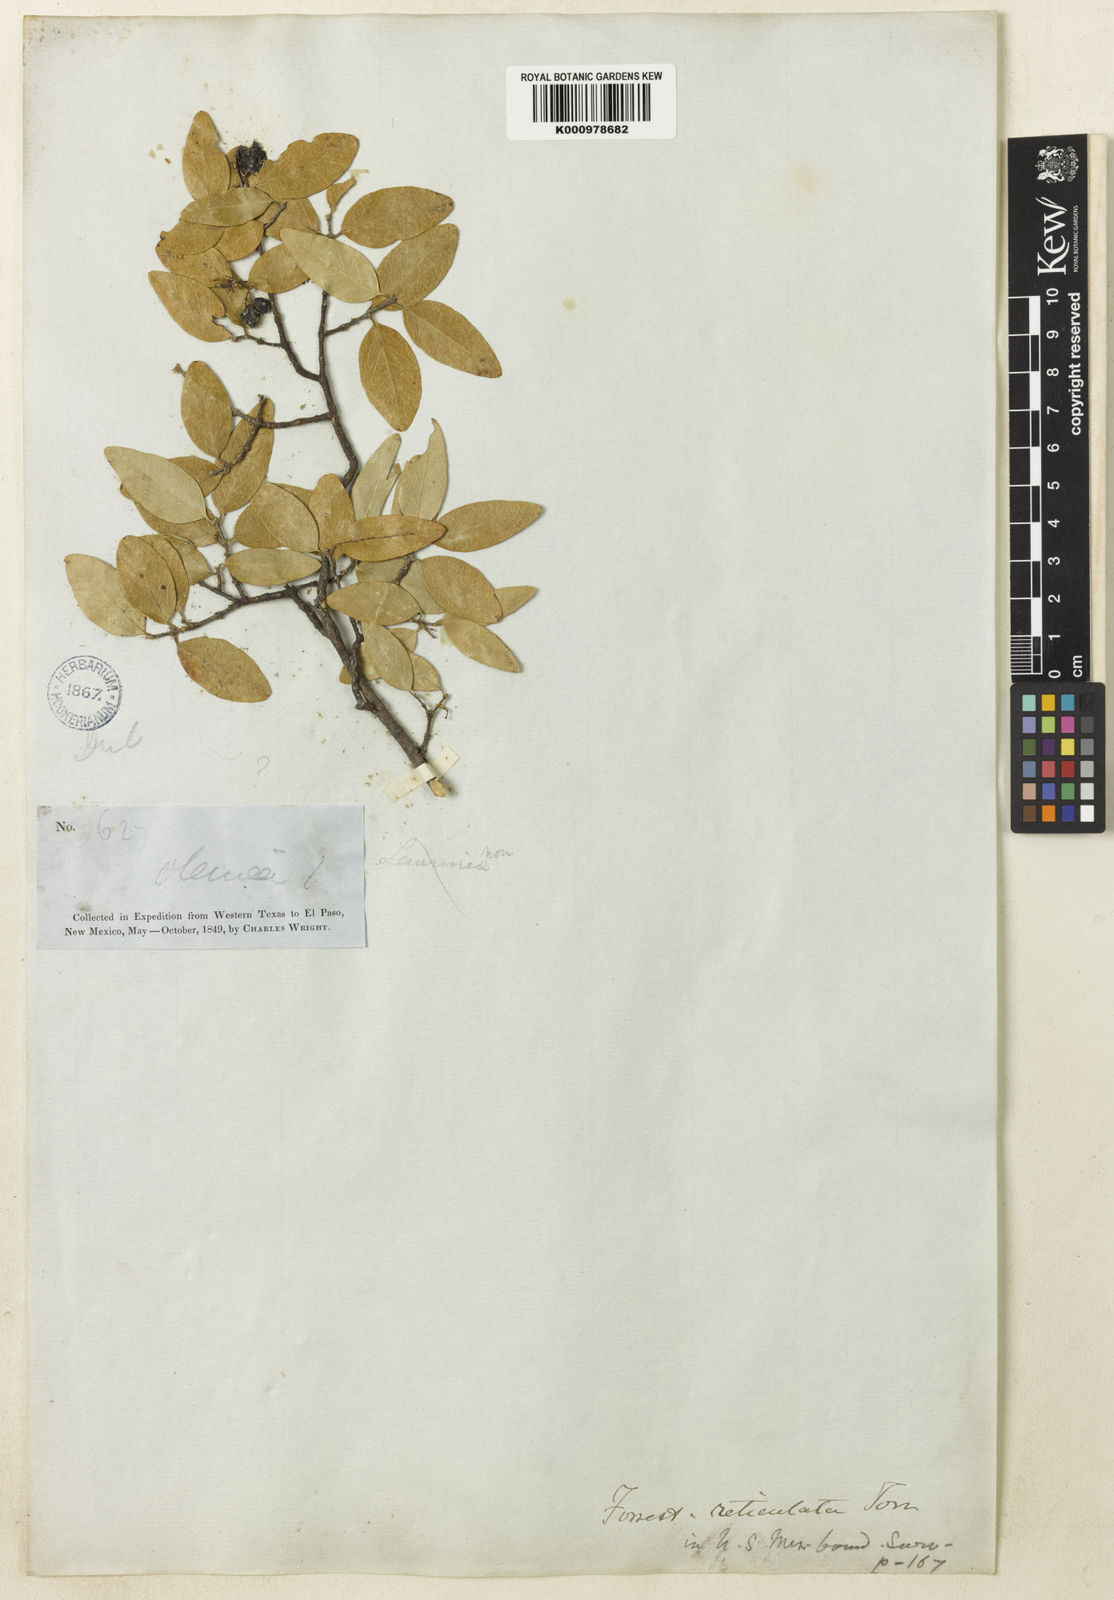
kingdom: Plantae
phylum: Tracheophyta
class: Magnoliopsida
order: Lamiales
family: Oleaceae
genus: Forestiera
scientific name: Forestiera reticulata
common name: Netleaf swamp-privet
